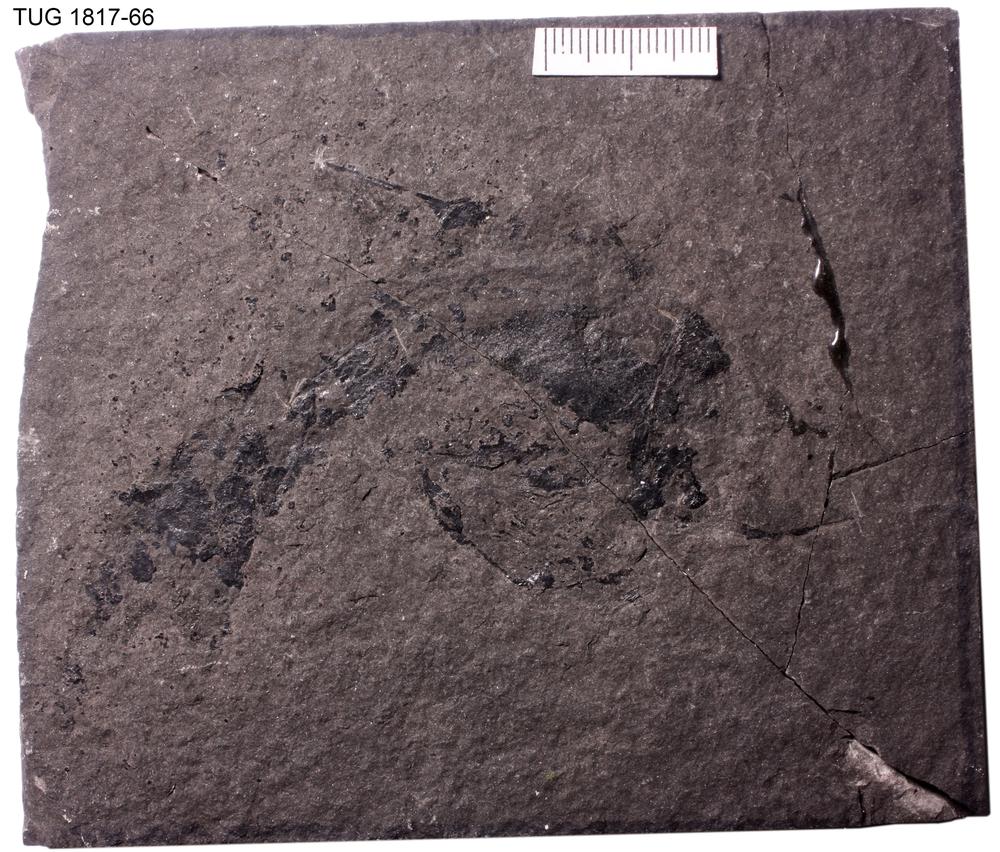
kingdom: Animalia
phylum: Chordata
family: Acanthodidae
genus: Cheiracanthus
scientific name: Cheiracanthus murchisoni
